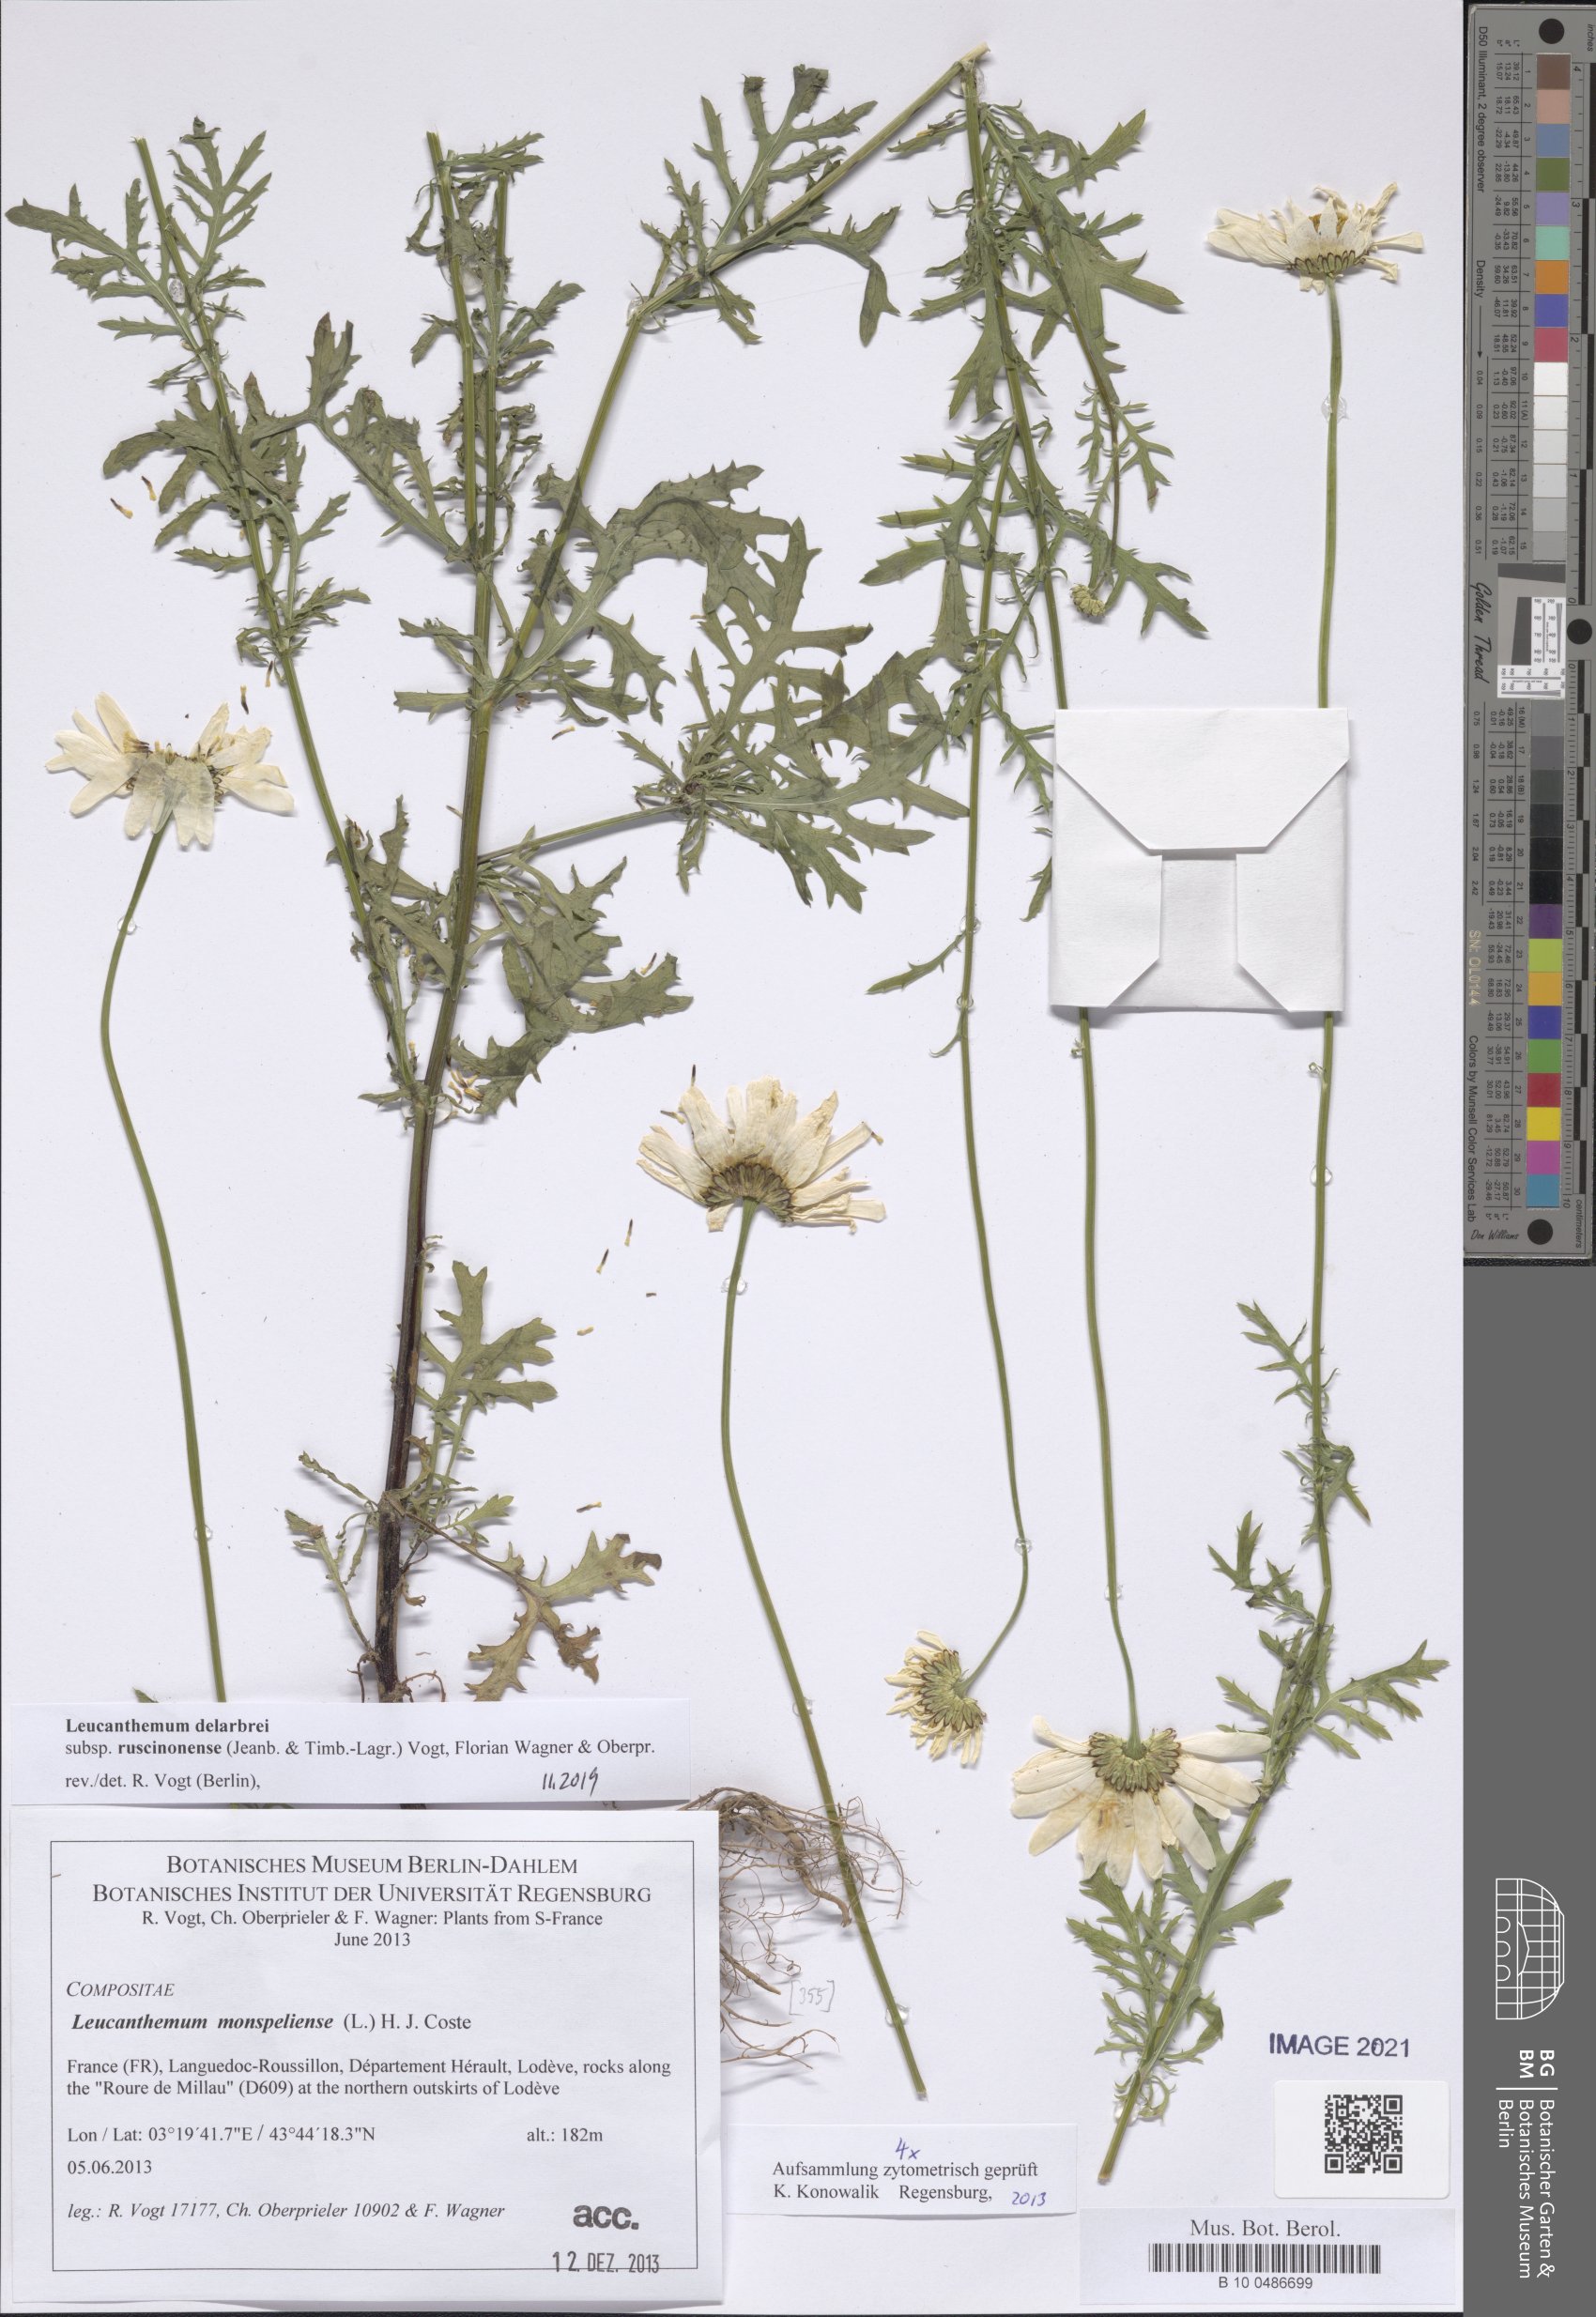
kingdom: Plantae
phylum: Tracheophyta
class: Magnoliopsida
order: Asterales
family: Asteraceae
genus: Leucanthemum
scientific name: Leucanthemum delarbrei
